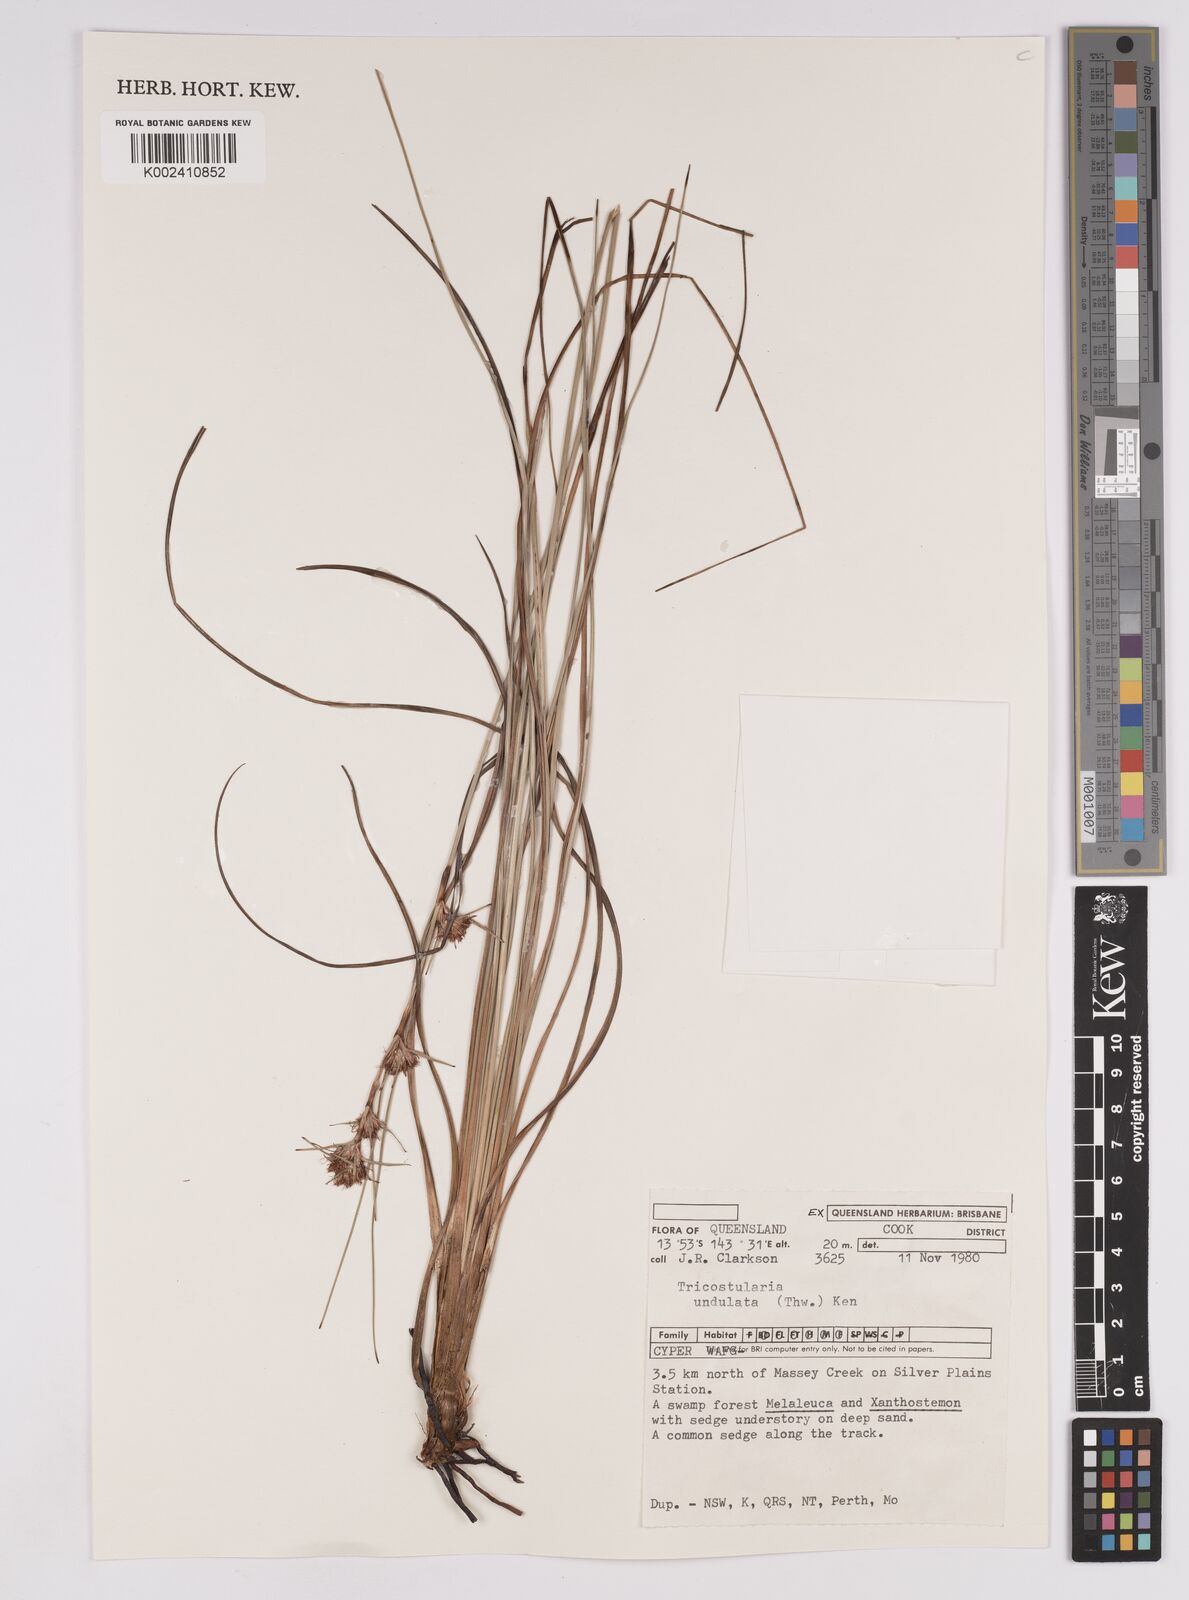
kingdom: Plantae
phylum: Tracheophyta
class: Liliopsida
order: Poales
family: Cyperaceae
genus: Anthelepis
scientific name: Anthelepis undulata
